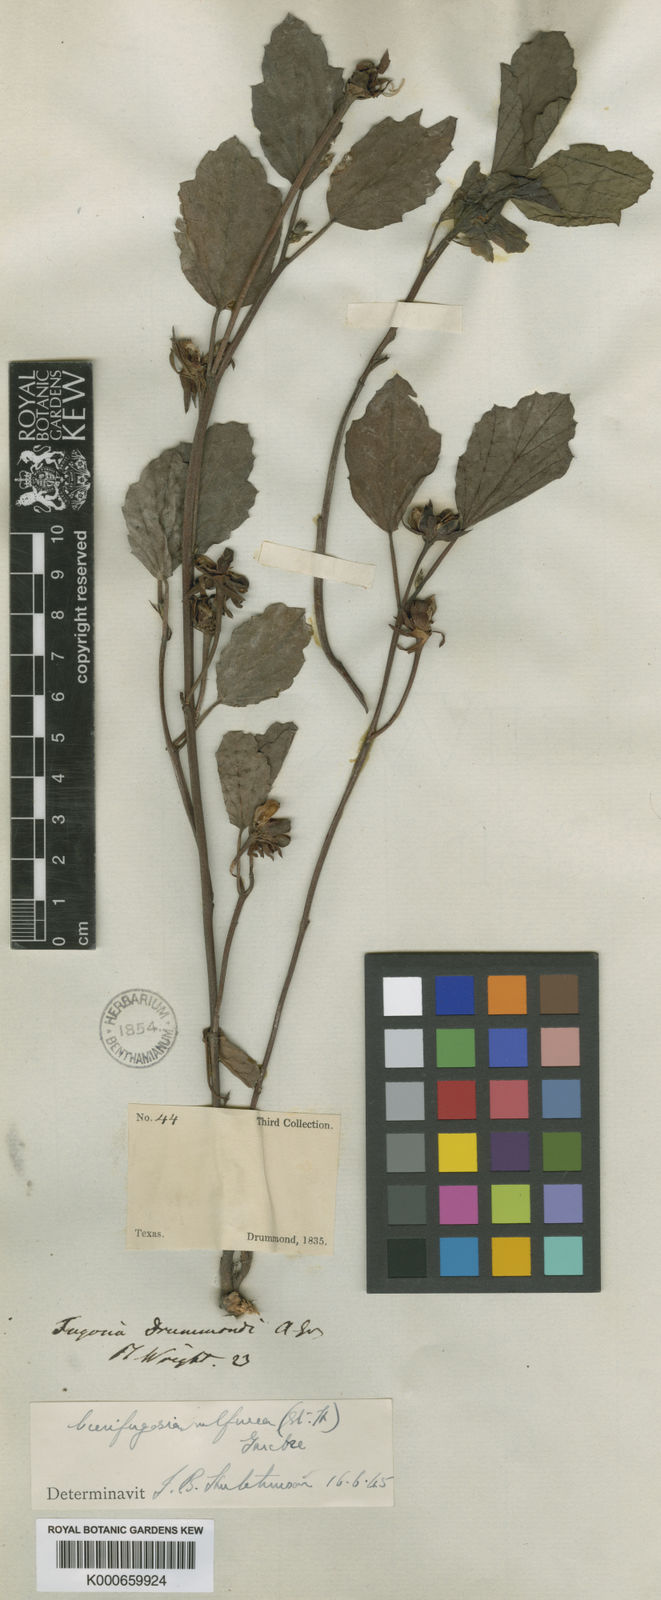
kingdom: Plantae
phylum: Tracheophyta
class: Magnoliopsida
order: Malvales
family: Malvaceae
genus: Cienfuegosia
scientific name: Cienfuegosia sulfurea
